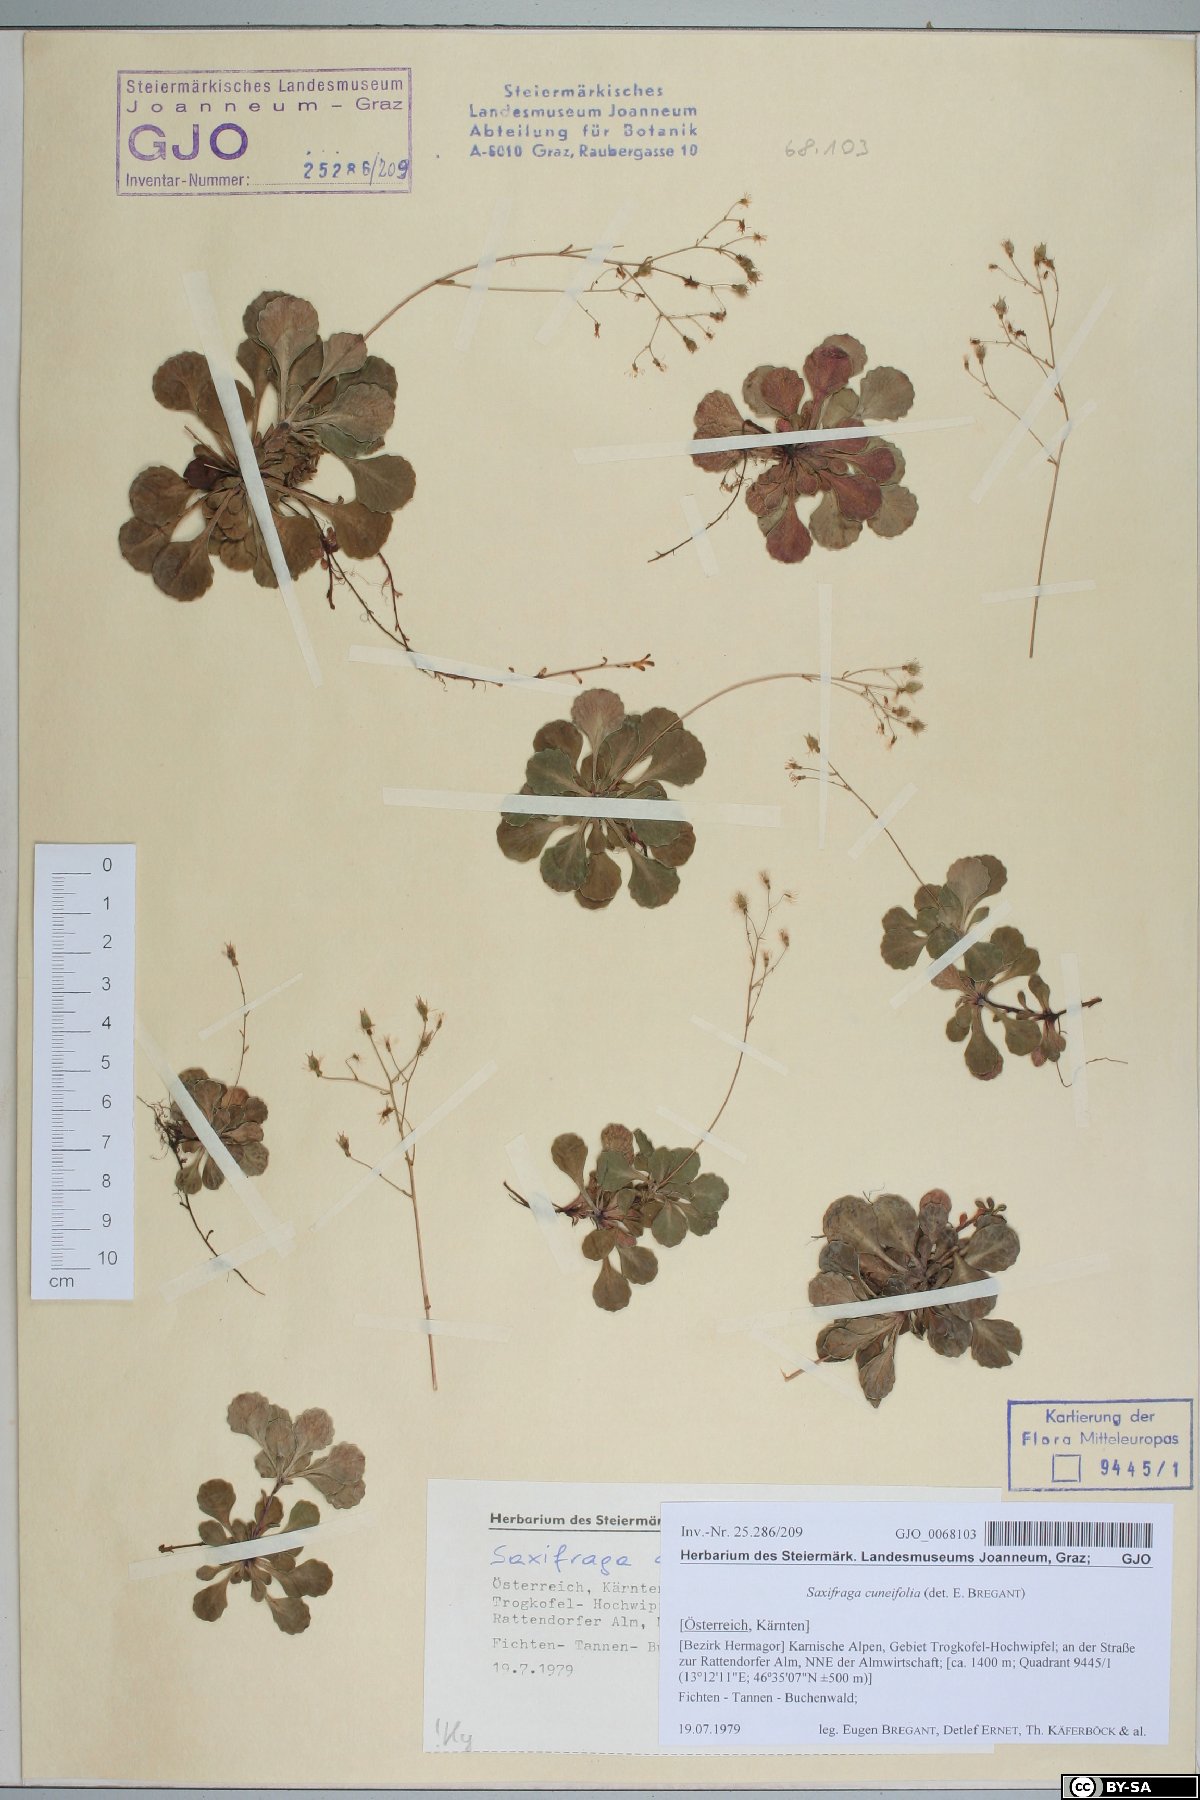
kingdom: Plantae
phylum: Tracheophyta
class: Magnoliopsida
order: Saxifragales
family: Saxifragaceae
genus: Saxifraga
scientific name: Saxifraga cuneifolia
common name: Lesser londonpride
